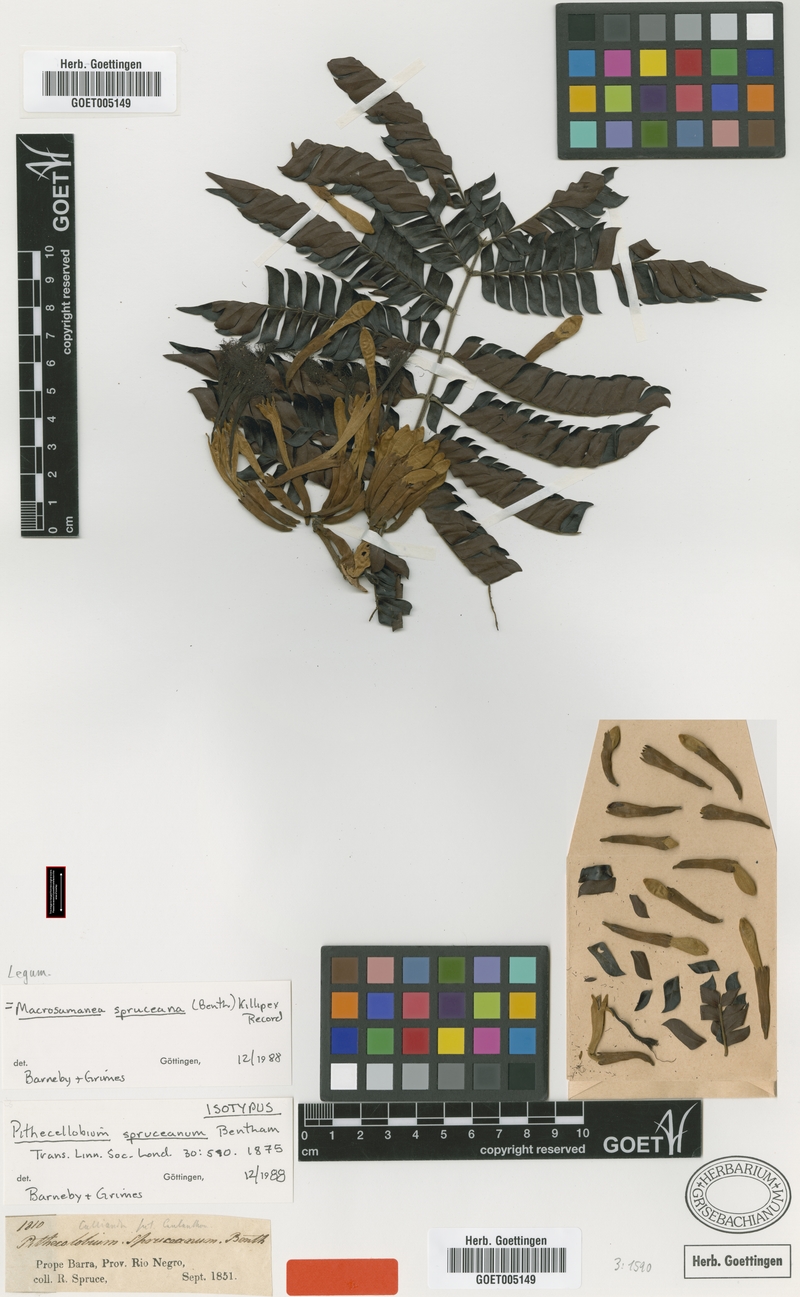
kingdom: Plantae
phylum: Tracheophyta
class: Magnoliopsida
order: Fabales
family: Fabaceae
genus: Macrosamanea
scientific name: Macrosamanea spruceana
